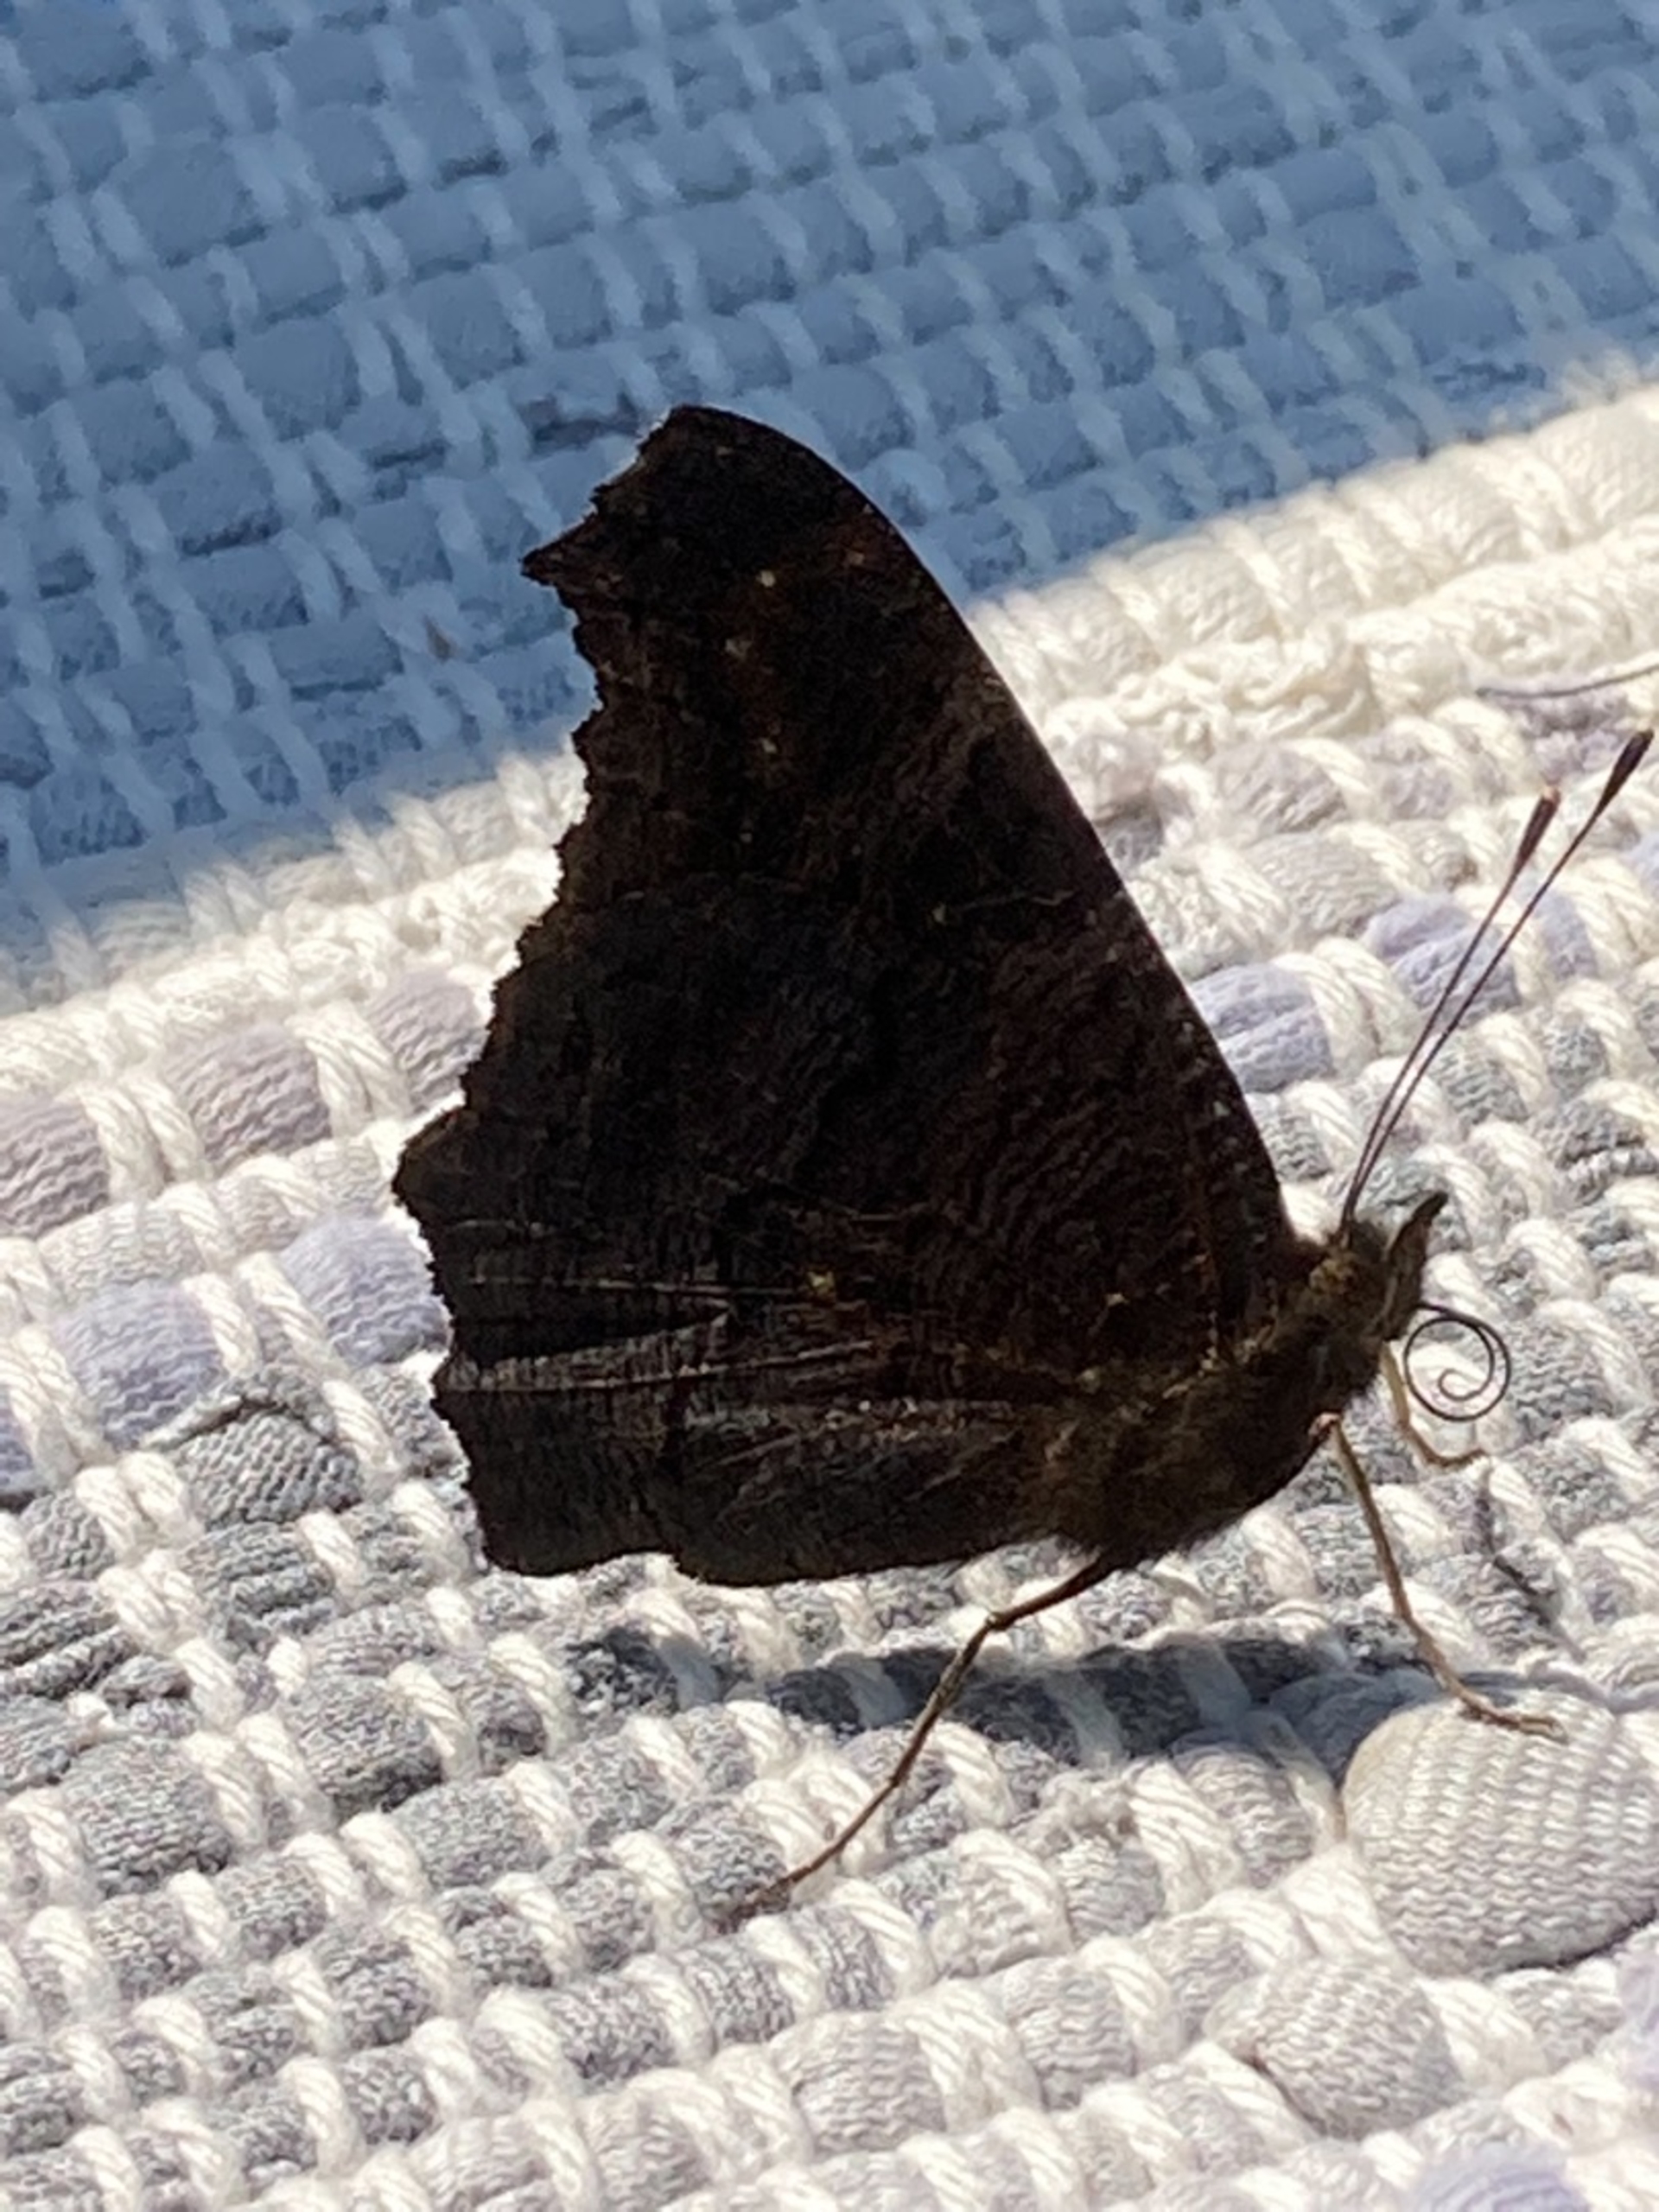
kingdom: Animalia
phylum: Arthropoda
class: Insecta
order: Lepidoptera
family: Nymphalidae
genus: Aglais
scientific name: Aglais io
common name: Dagpåfugleøje
